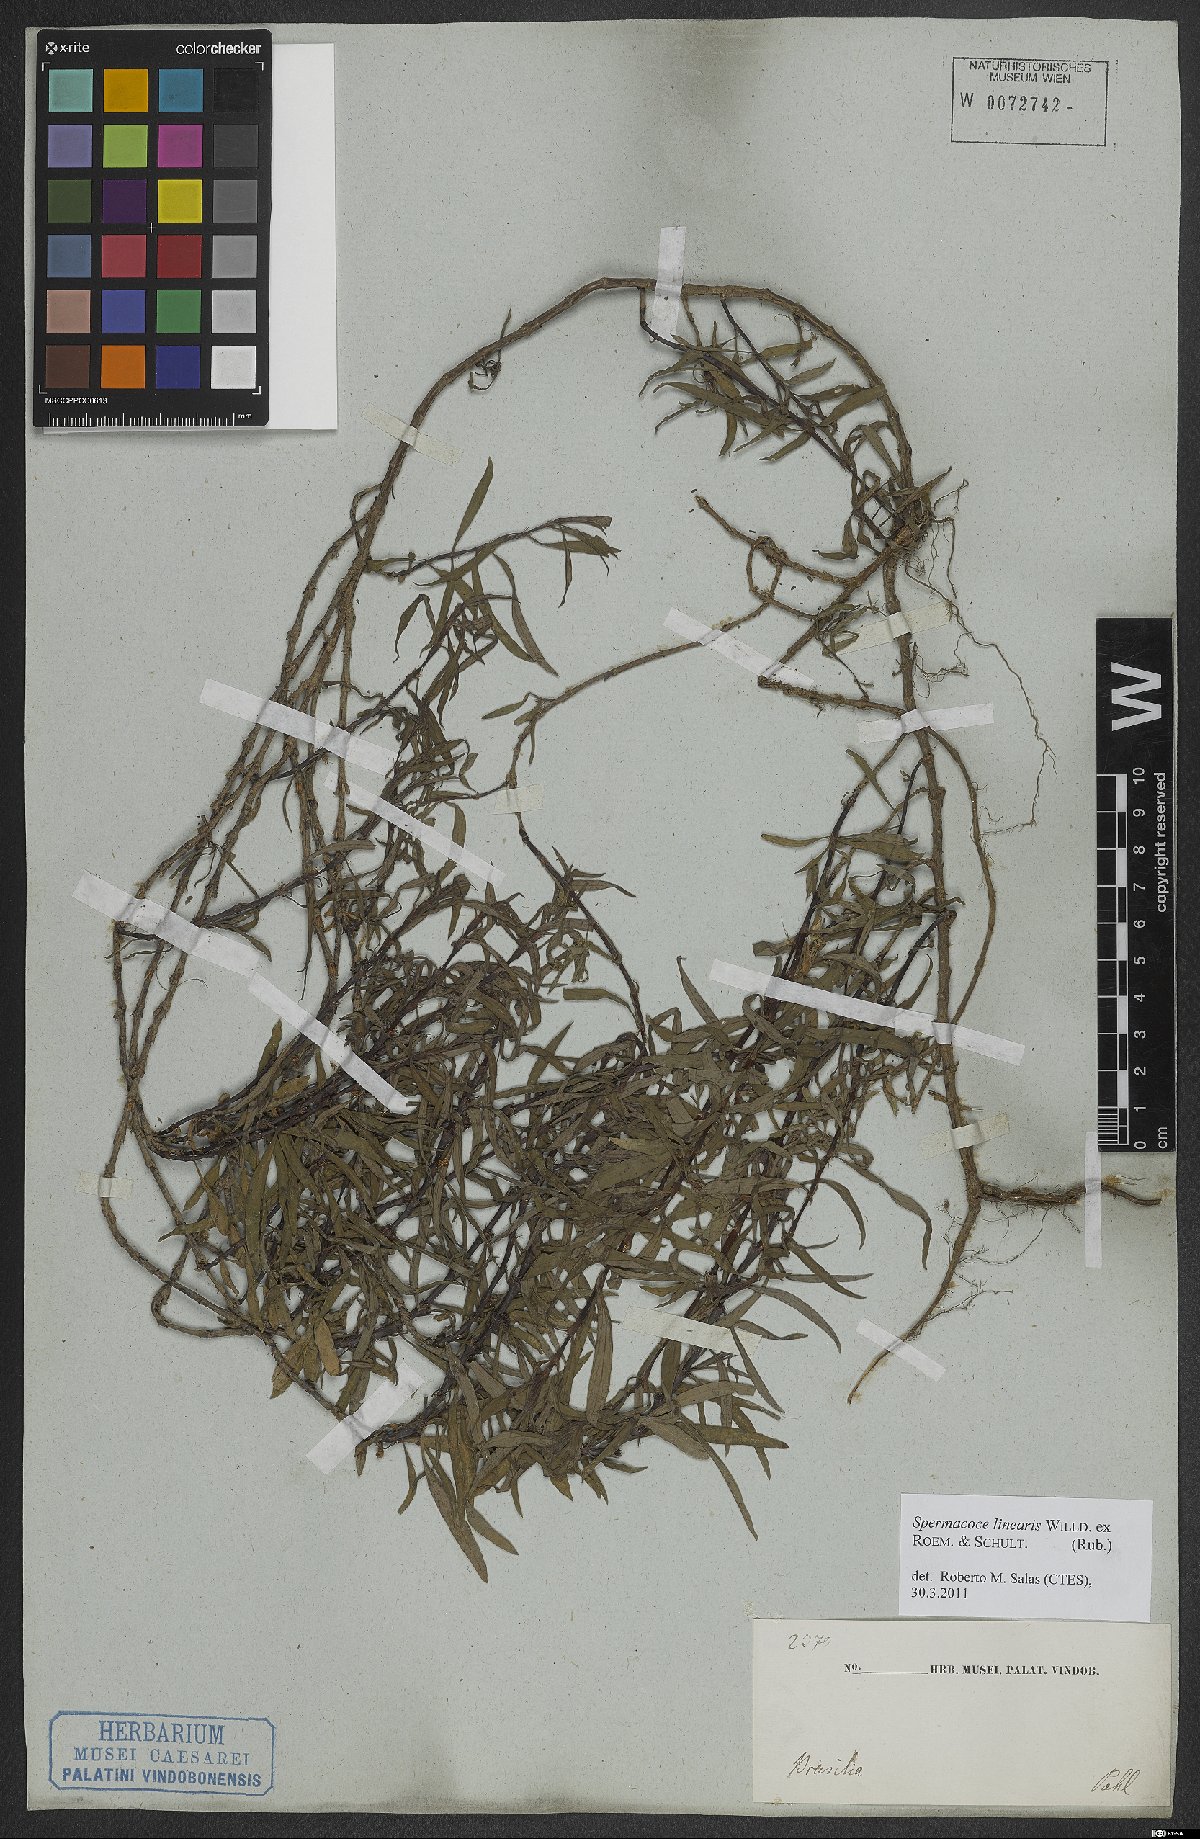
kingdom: Plantae
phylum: Tracheophyta
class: Magnoliopsida
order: Gentianales
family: Rubiaceae
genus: Spermacoce
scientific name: Spermacoce hyssopifolia
